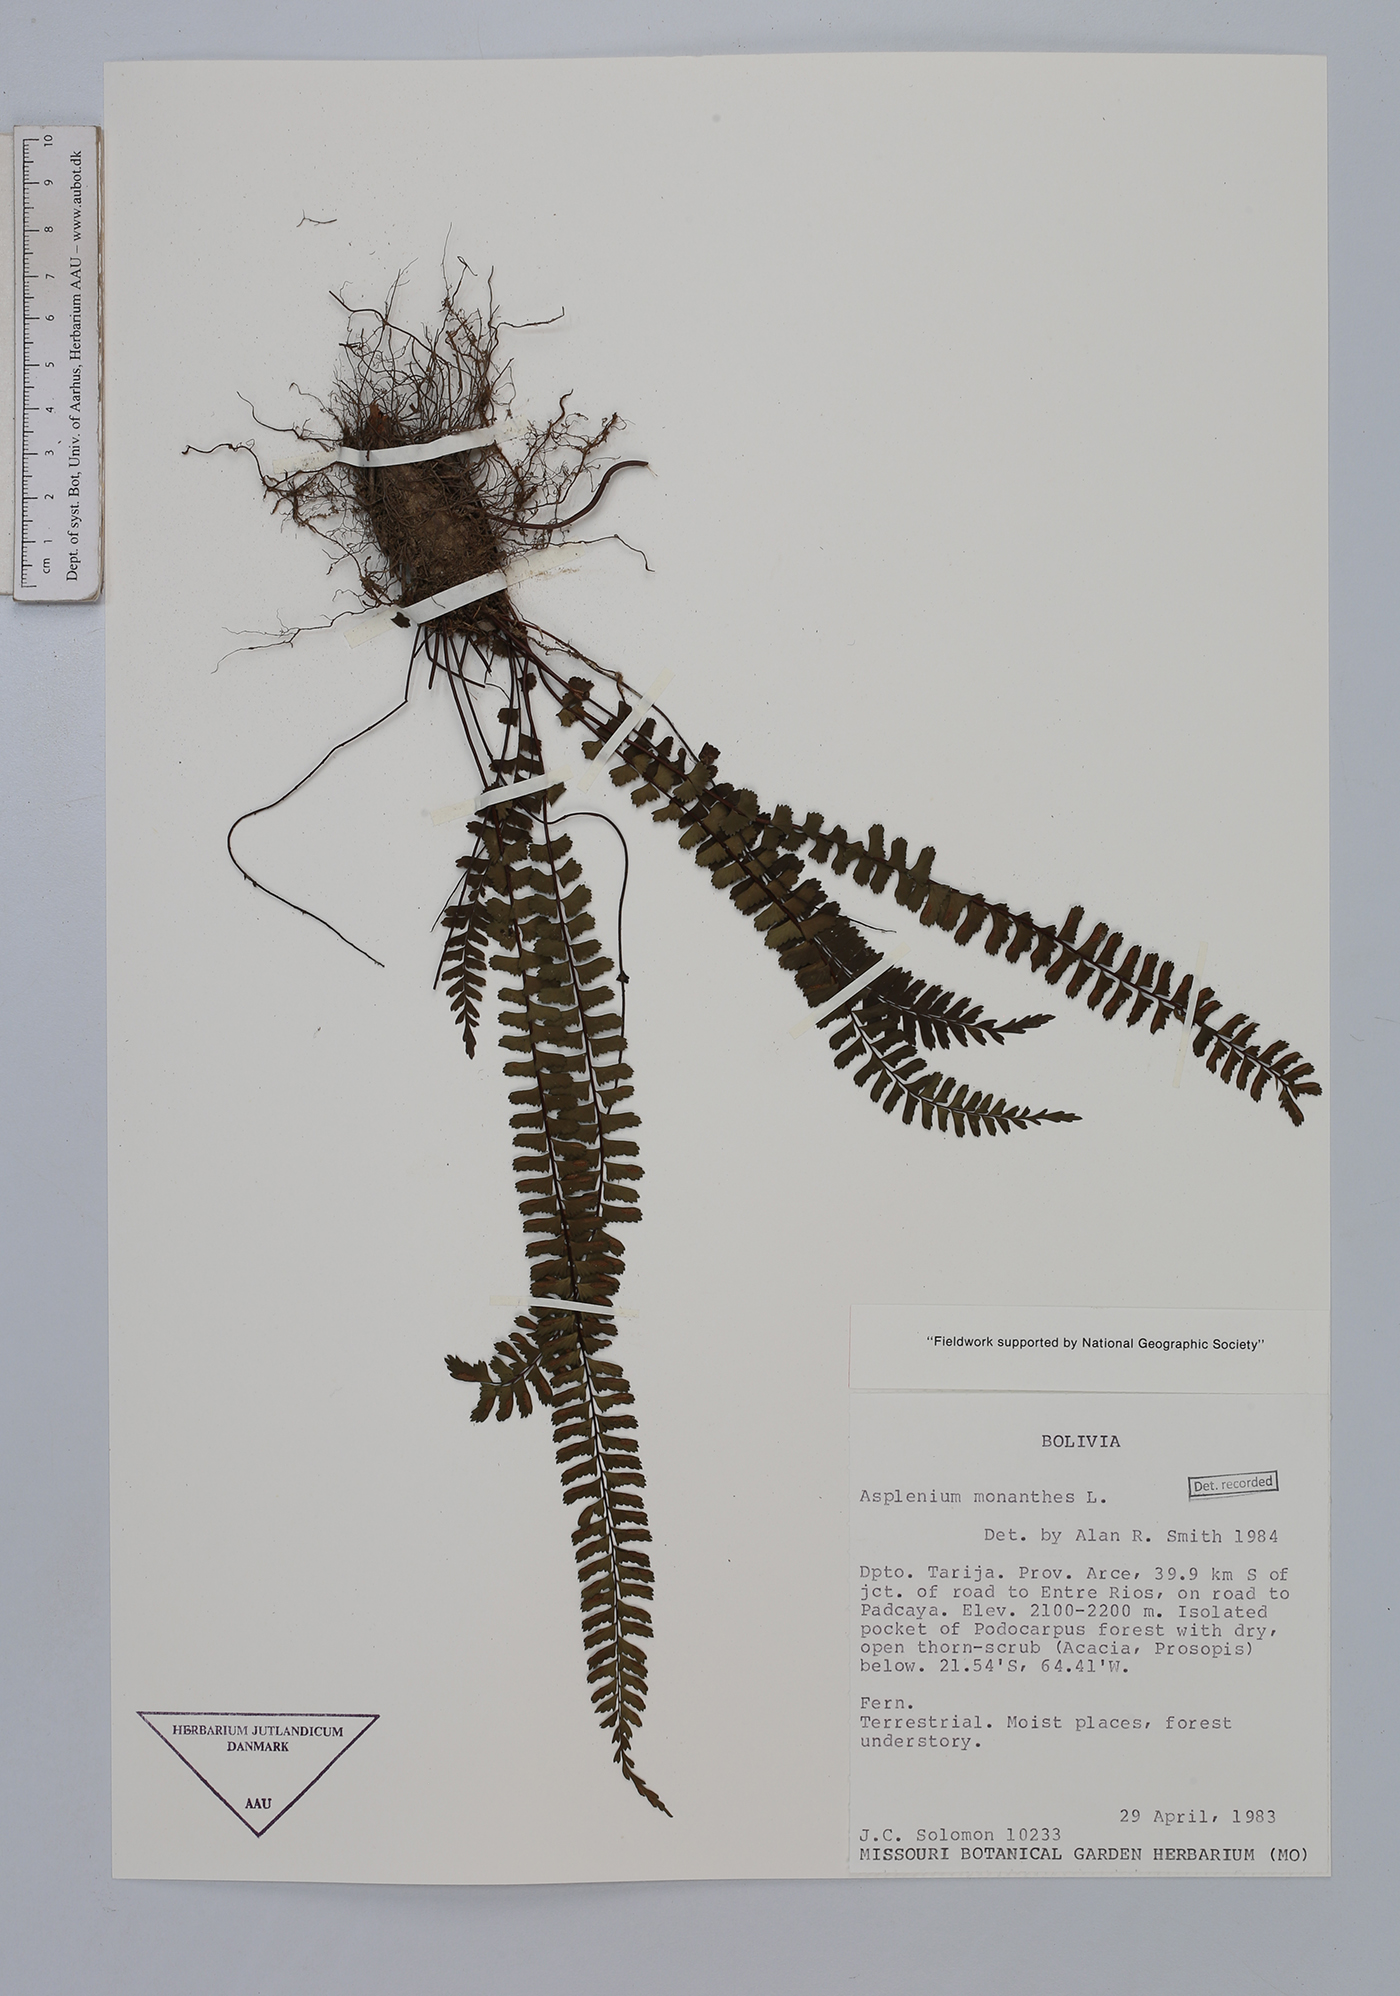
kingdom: Plantae
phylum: Tracheophyta
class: Polypodiopsida
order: Polypodiales
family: Aspleniaceae
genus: Asplenium
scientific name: Asplenium monanthes
